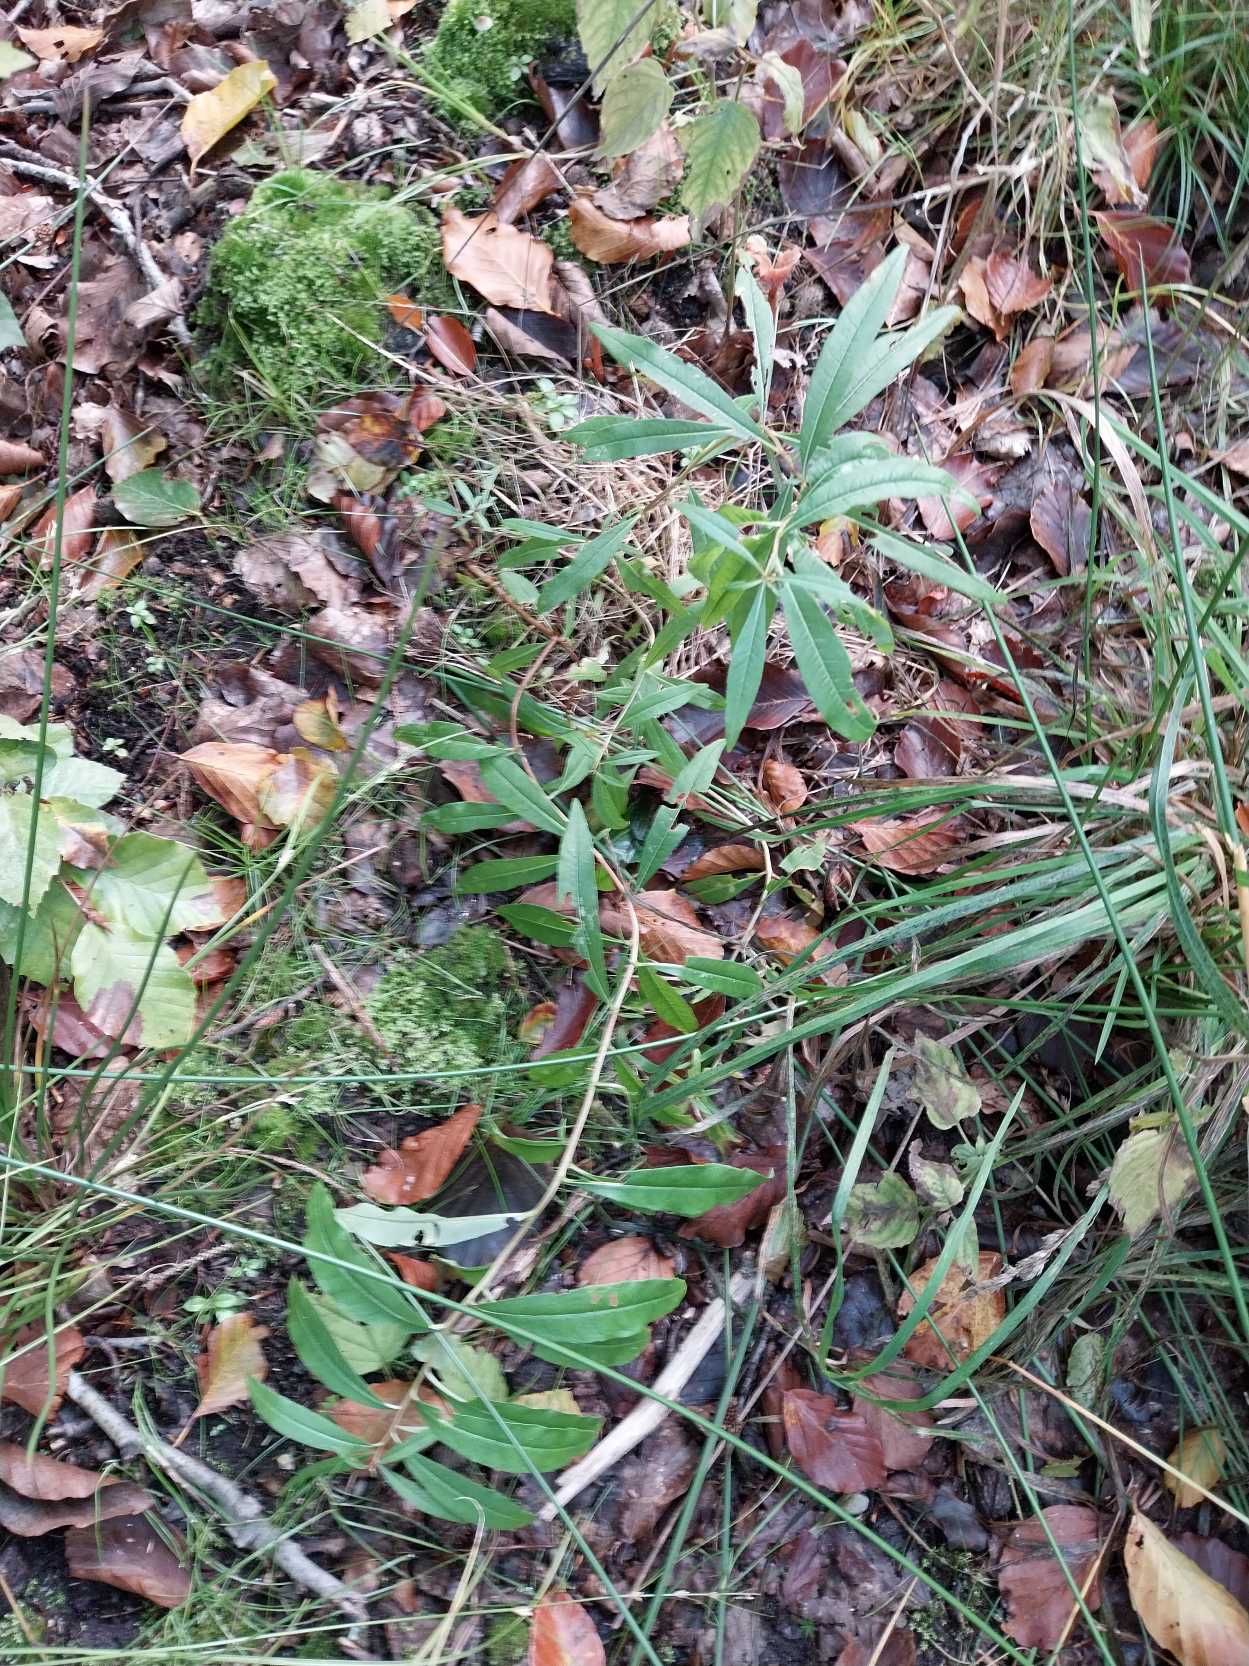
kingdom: Plantae
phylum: Tracheophyta
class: Magnoliopsida
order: Myrtales
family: Onagraceae
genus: Chamaenerion
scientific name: Chamaenerion angustifolium
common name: Gederams
